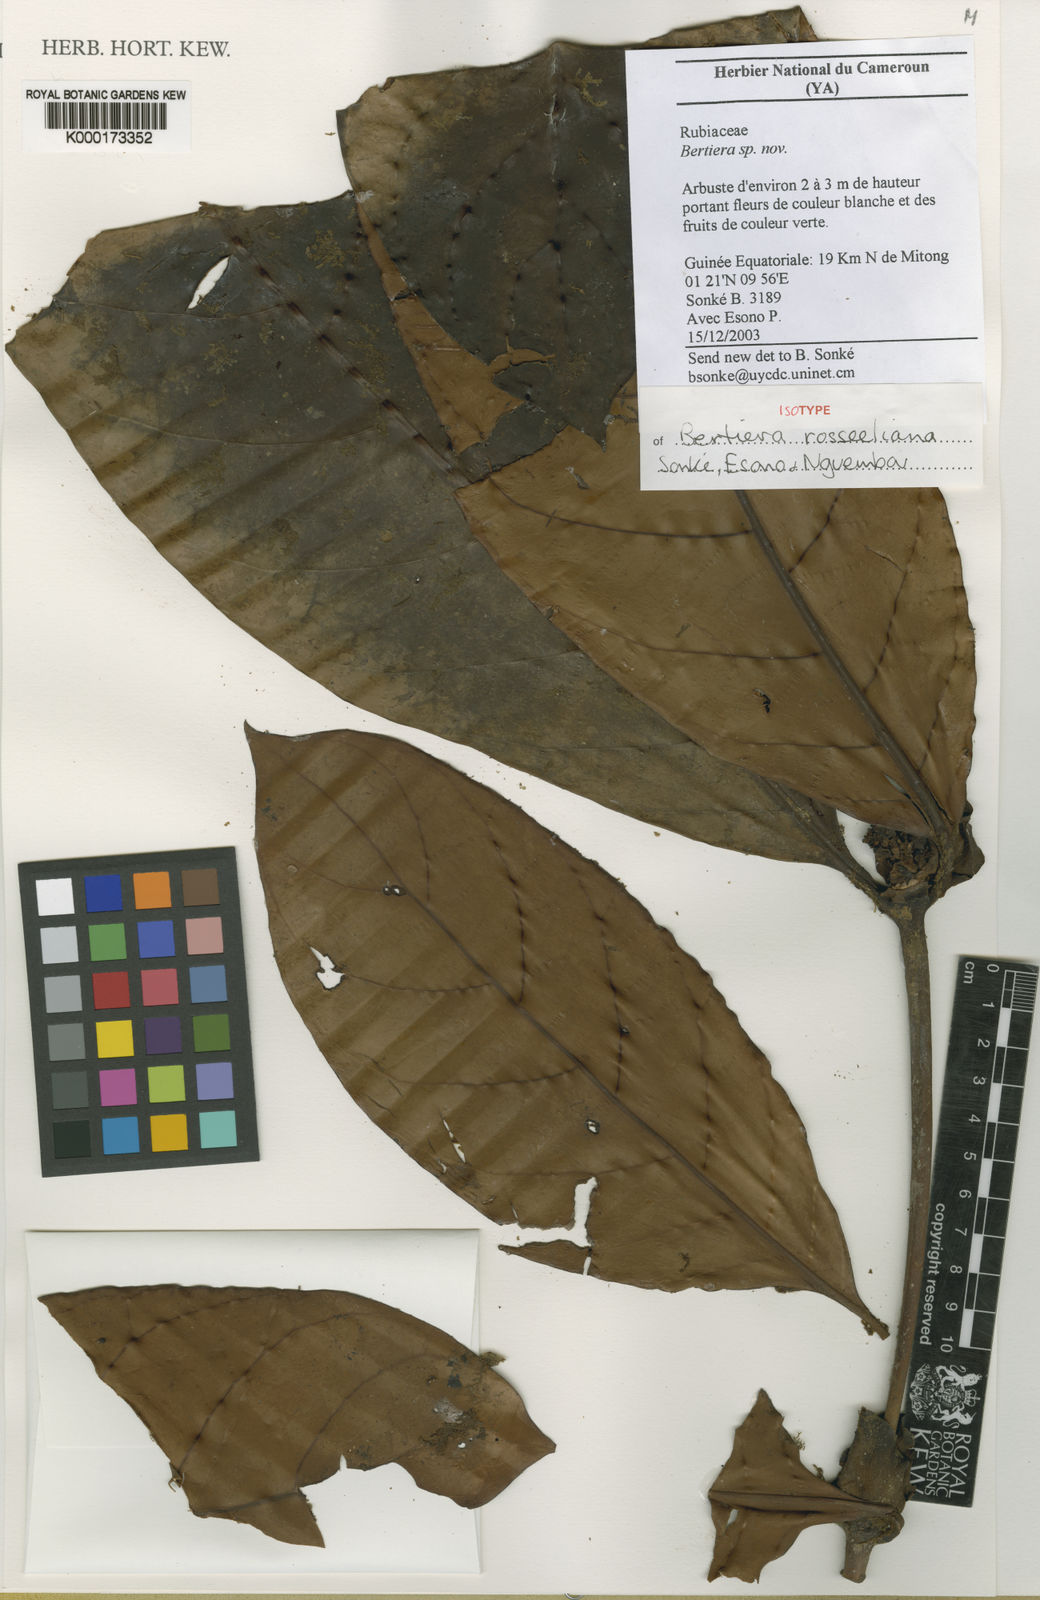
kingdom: Plantae
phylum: Tracheophyta
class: Magnoliopsida
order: Gentianales
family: Rubiaceae
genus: Bertiera
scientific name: Bertiera
